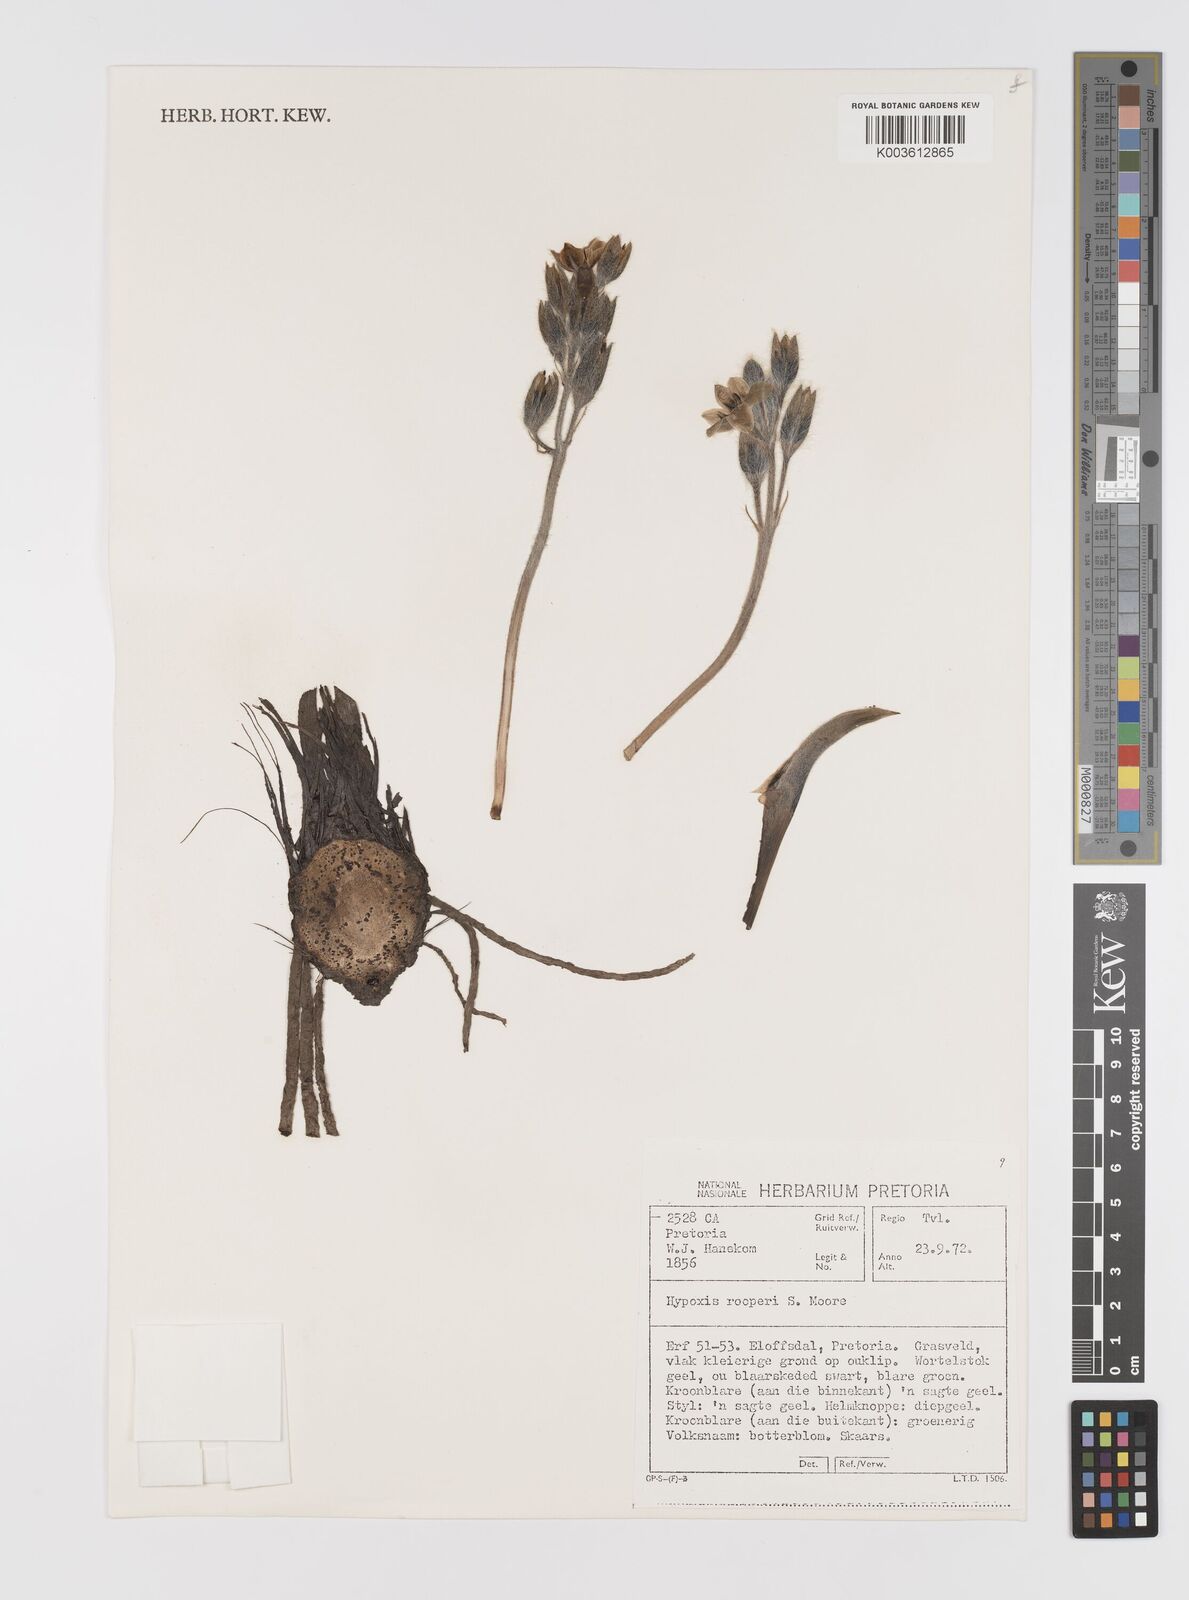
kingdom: Plantae
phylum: Tracheophyta
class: Liliopsida
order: Asparagales
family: Hypoxidaceae
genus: Hypoxis
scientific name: Hypoxis hemerocallidea
